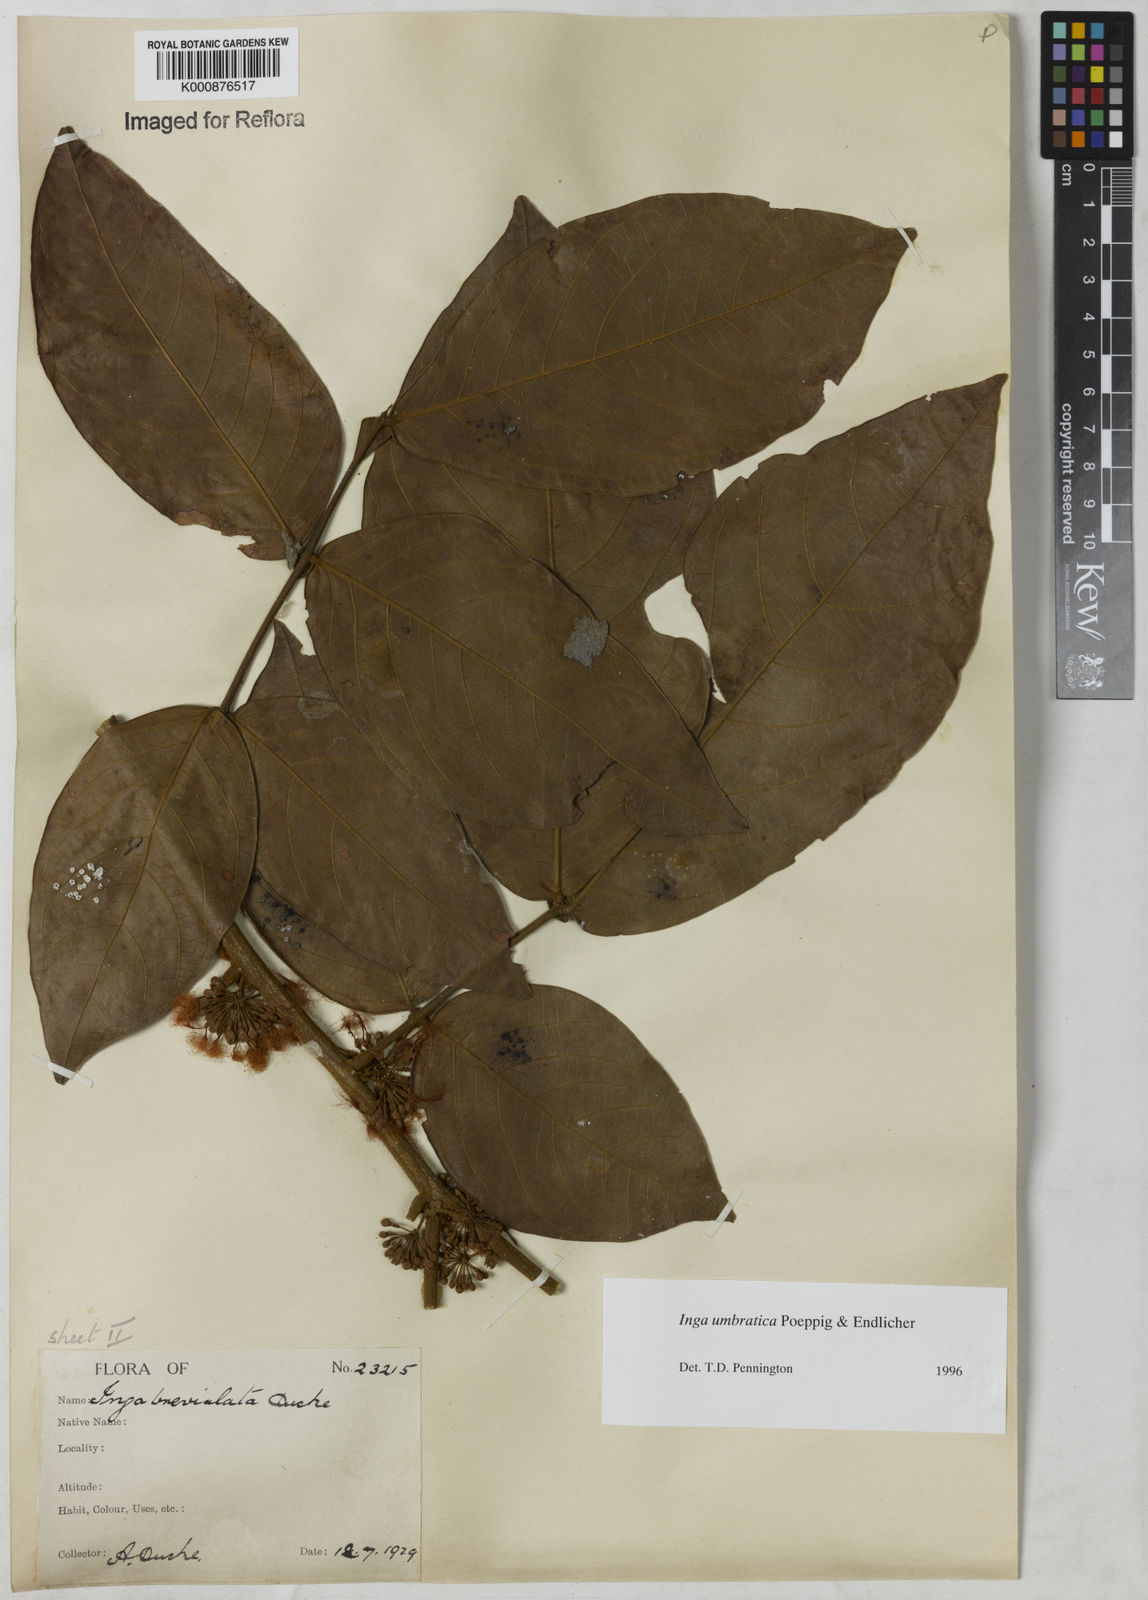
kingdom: Plantae
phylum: Tracheophyta
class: Magnoliopsida
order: Fabales
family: Fabaceae
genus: Inga
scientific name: Inga umbratica
